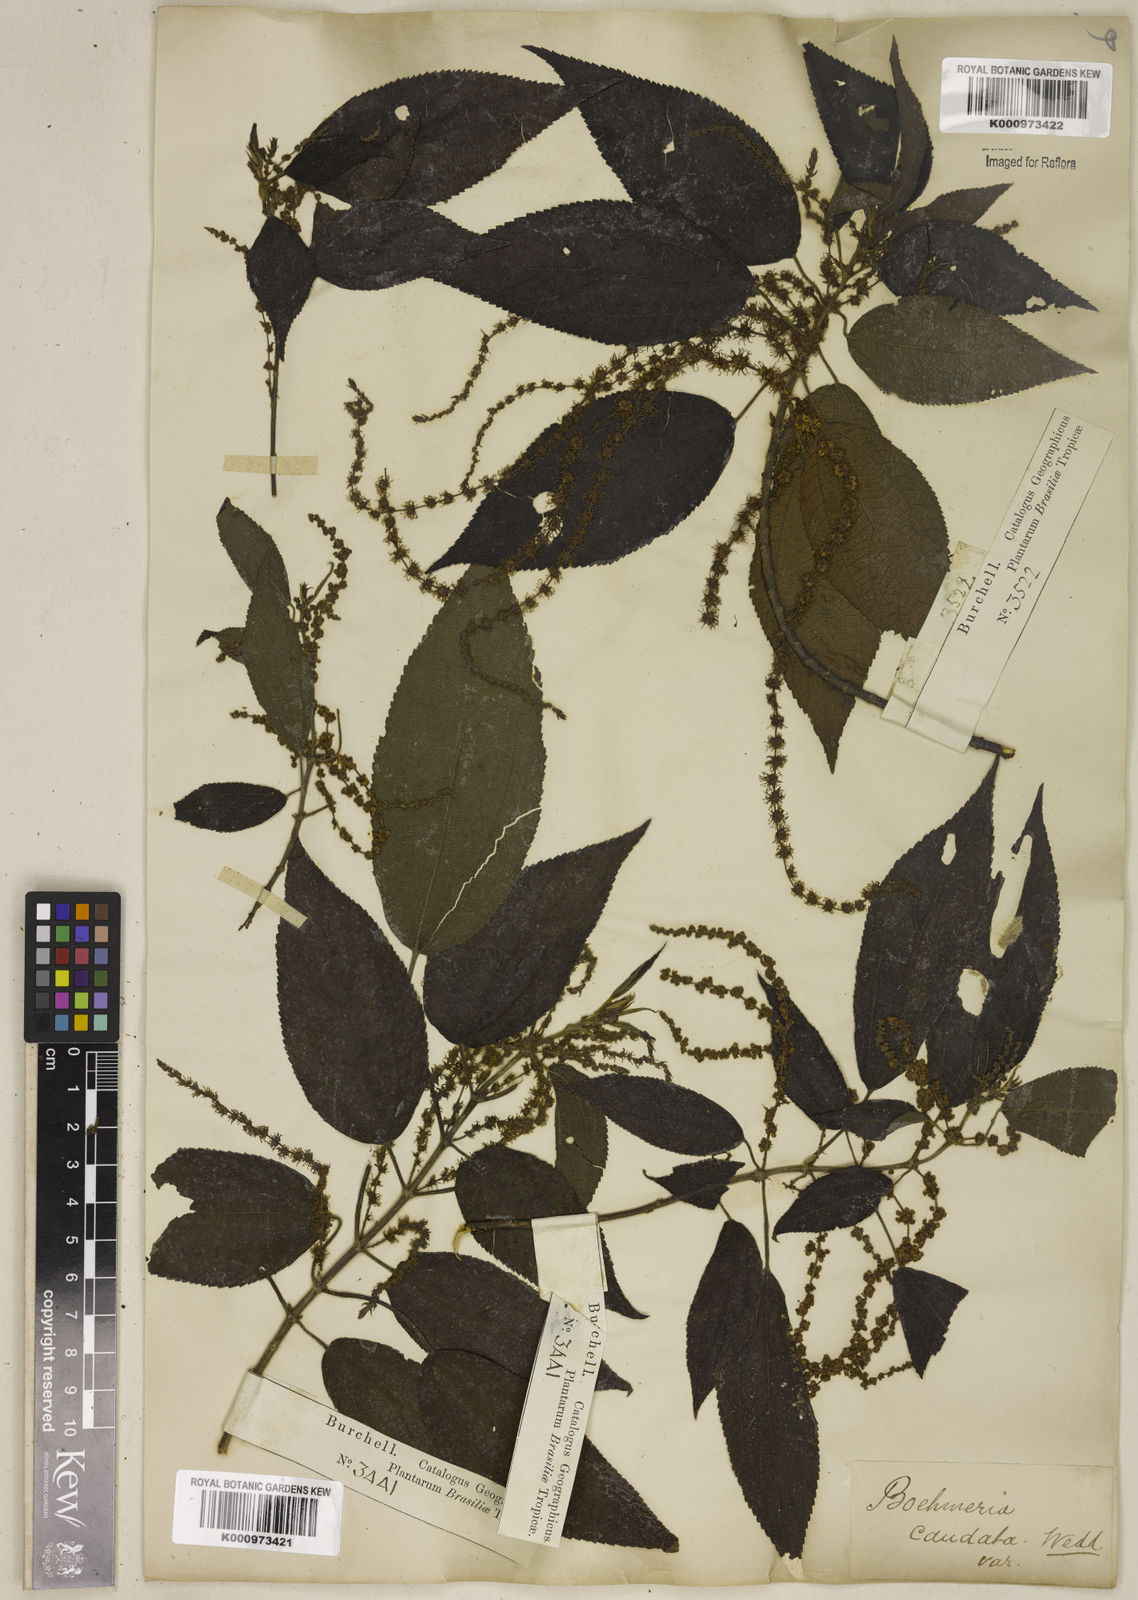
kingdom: Plantae
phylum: Tracheophyta
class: Magnoliopsida
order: Rosales
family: Urticaceae
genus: Boehmeria
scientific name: Boehmeria caudata
